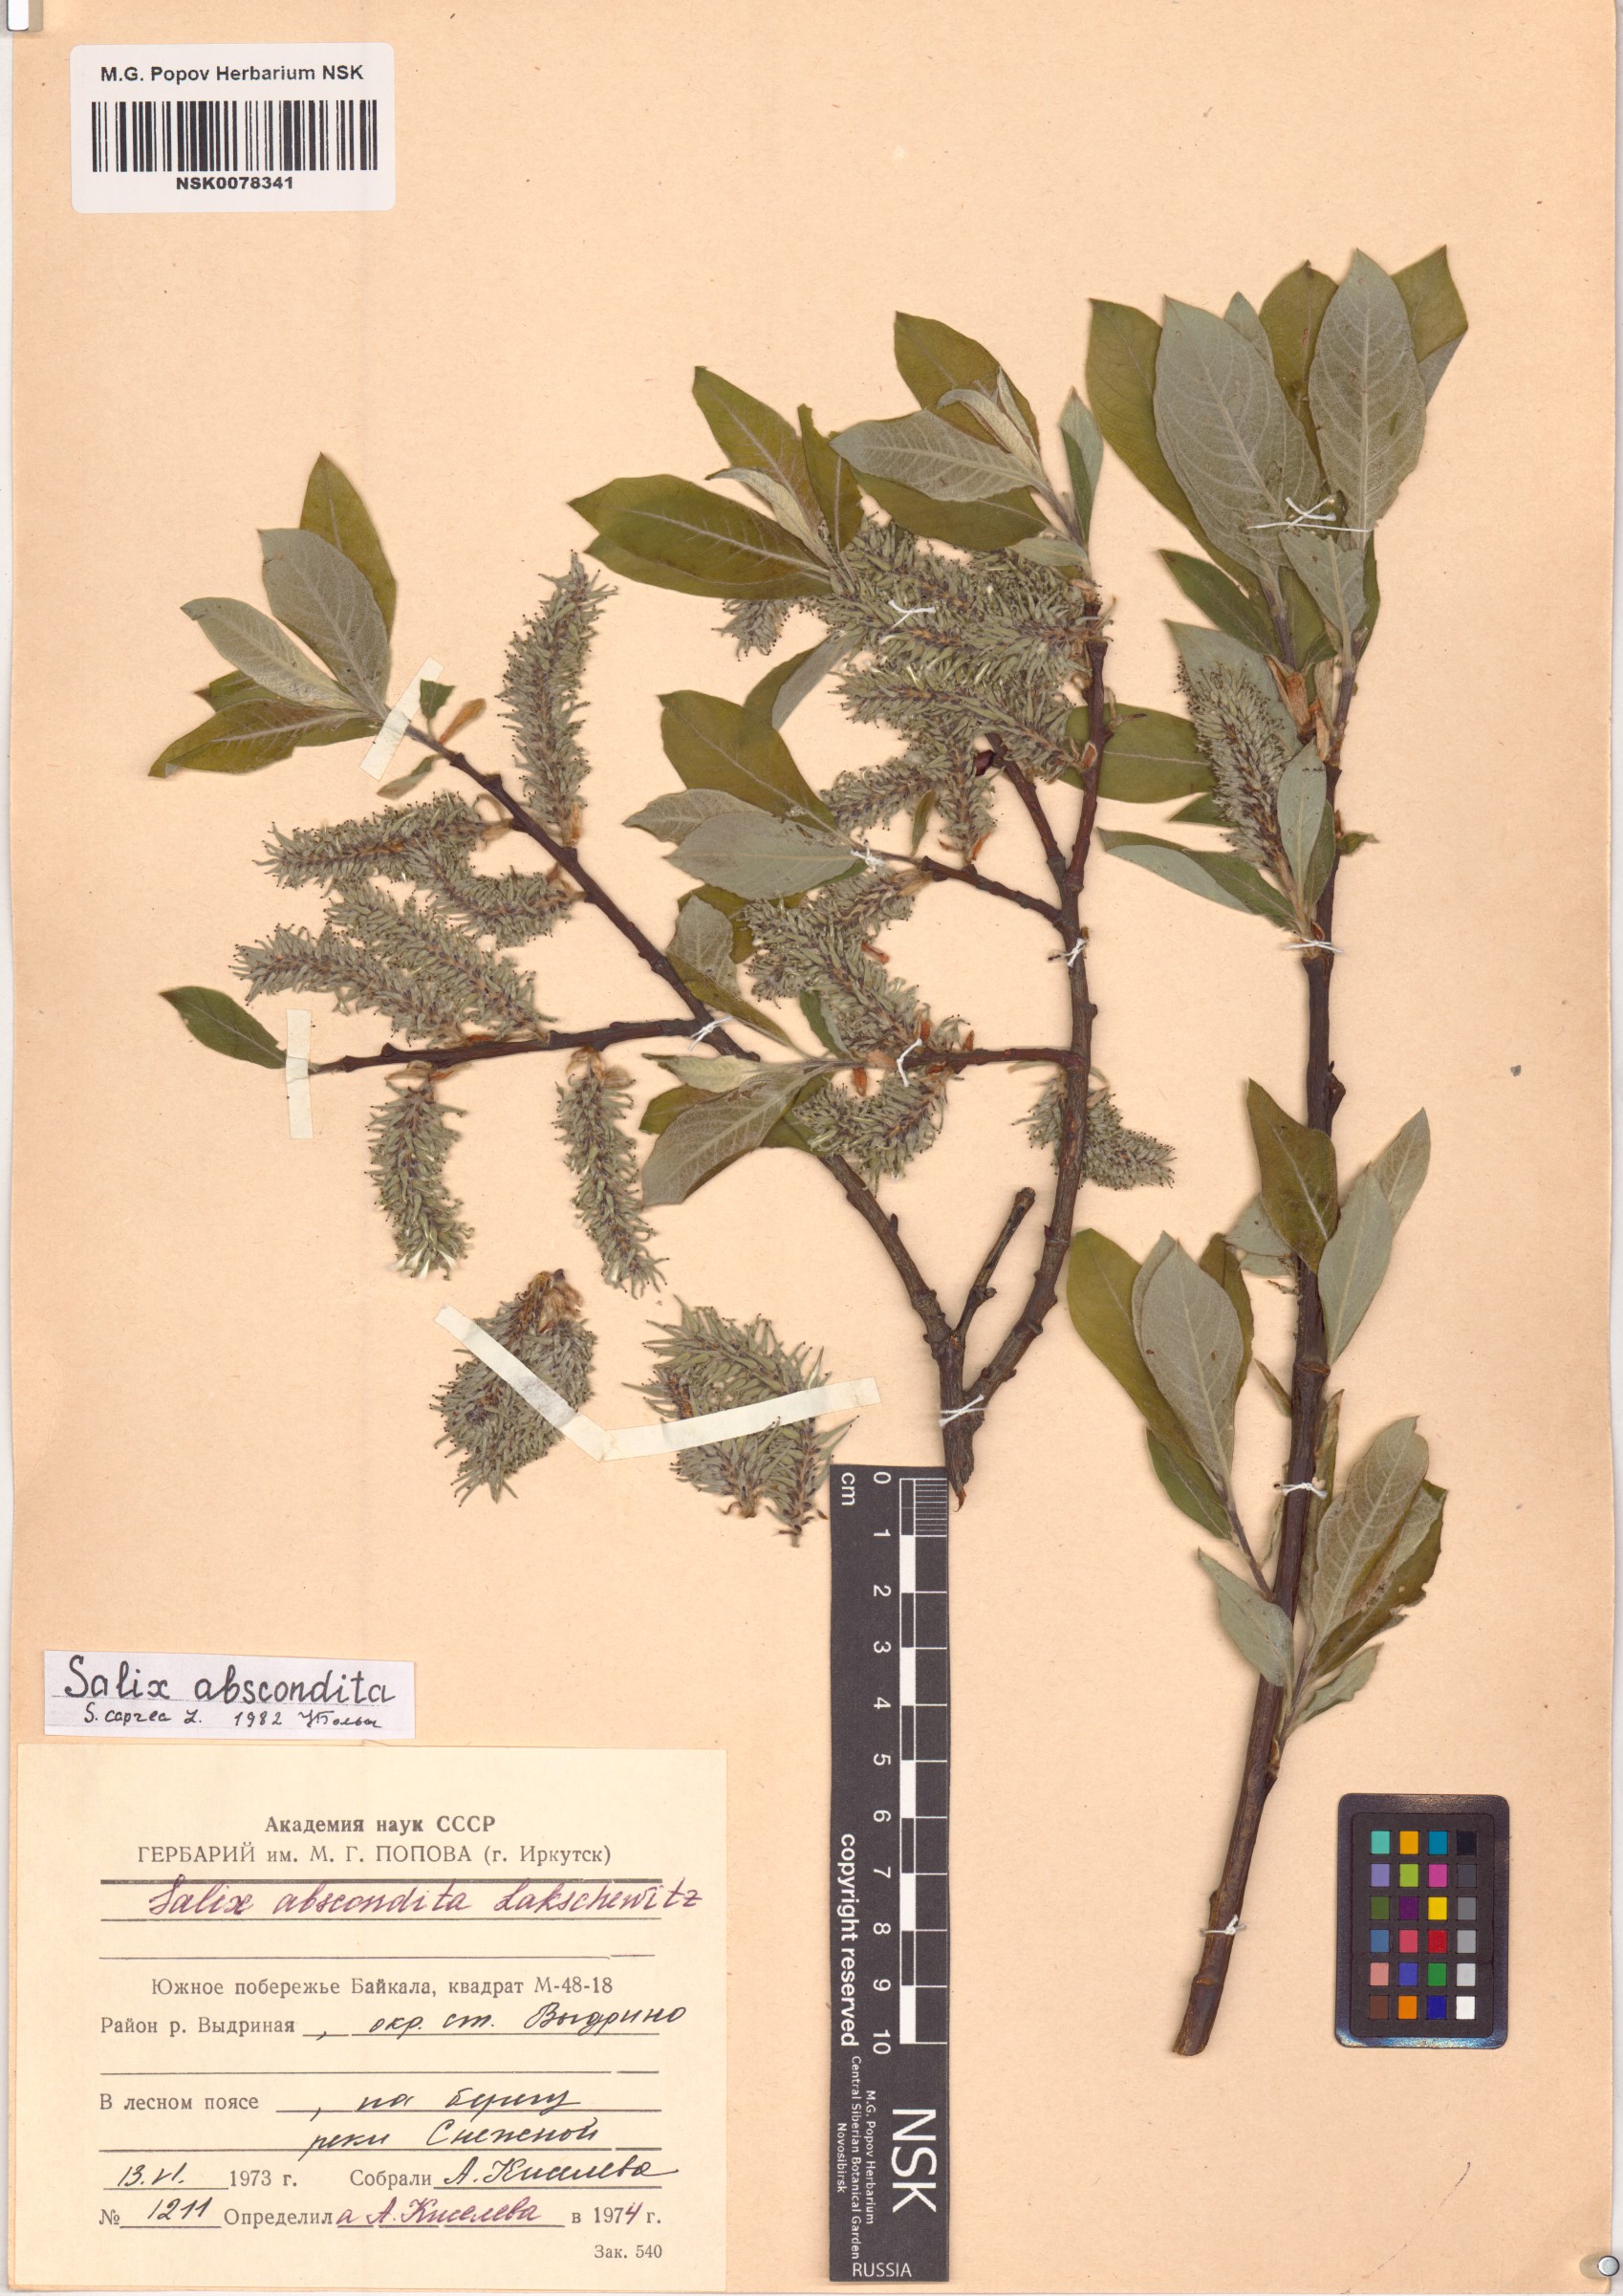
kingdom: Plantae
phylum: Tracheophyta
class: Magnoliopsida
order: Malpighiales
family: Salicaceae
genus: Salix
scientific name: Salix caprea
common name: Goat willow
